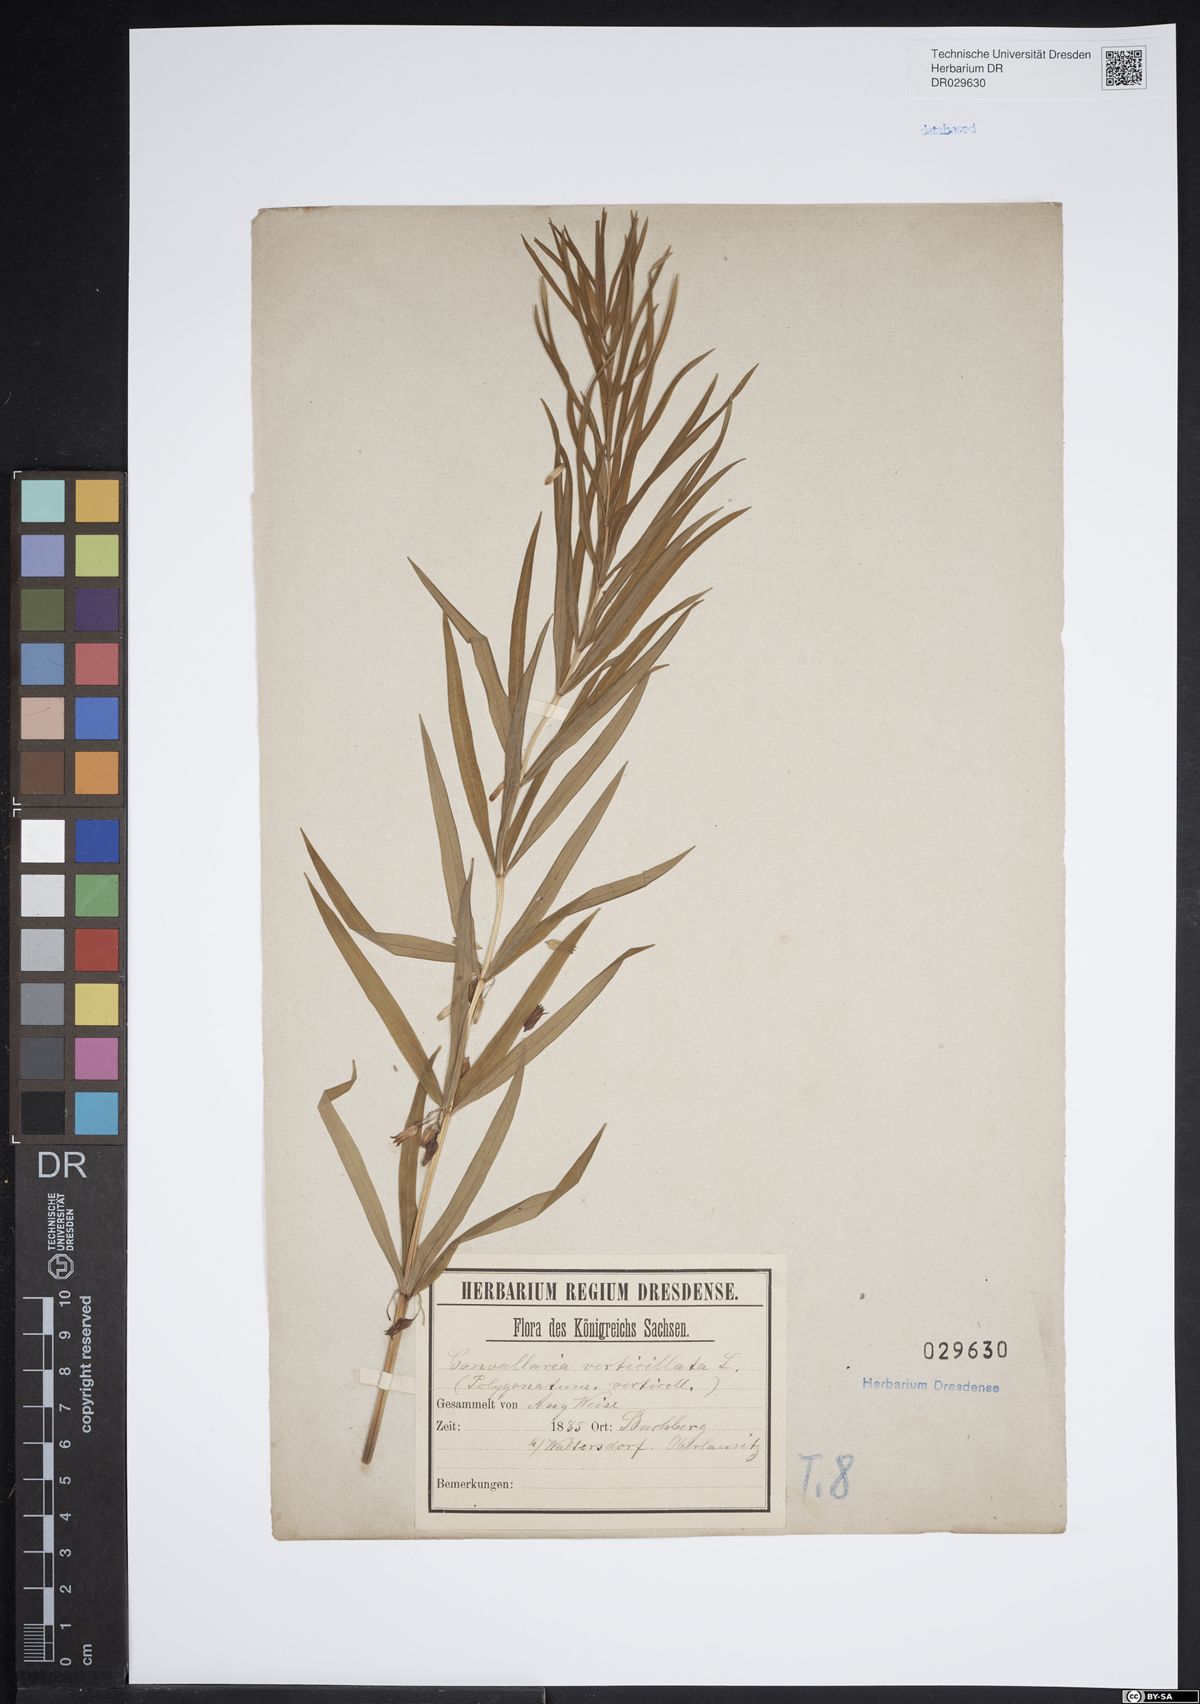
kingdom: Plantae
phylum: Tracheophyta
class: Liliopsida
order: Asparagales
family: Asparagaceae
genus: Polygonatum
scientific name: Polygonatum verticillatum
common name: Whorled solomon's-seal
